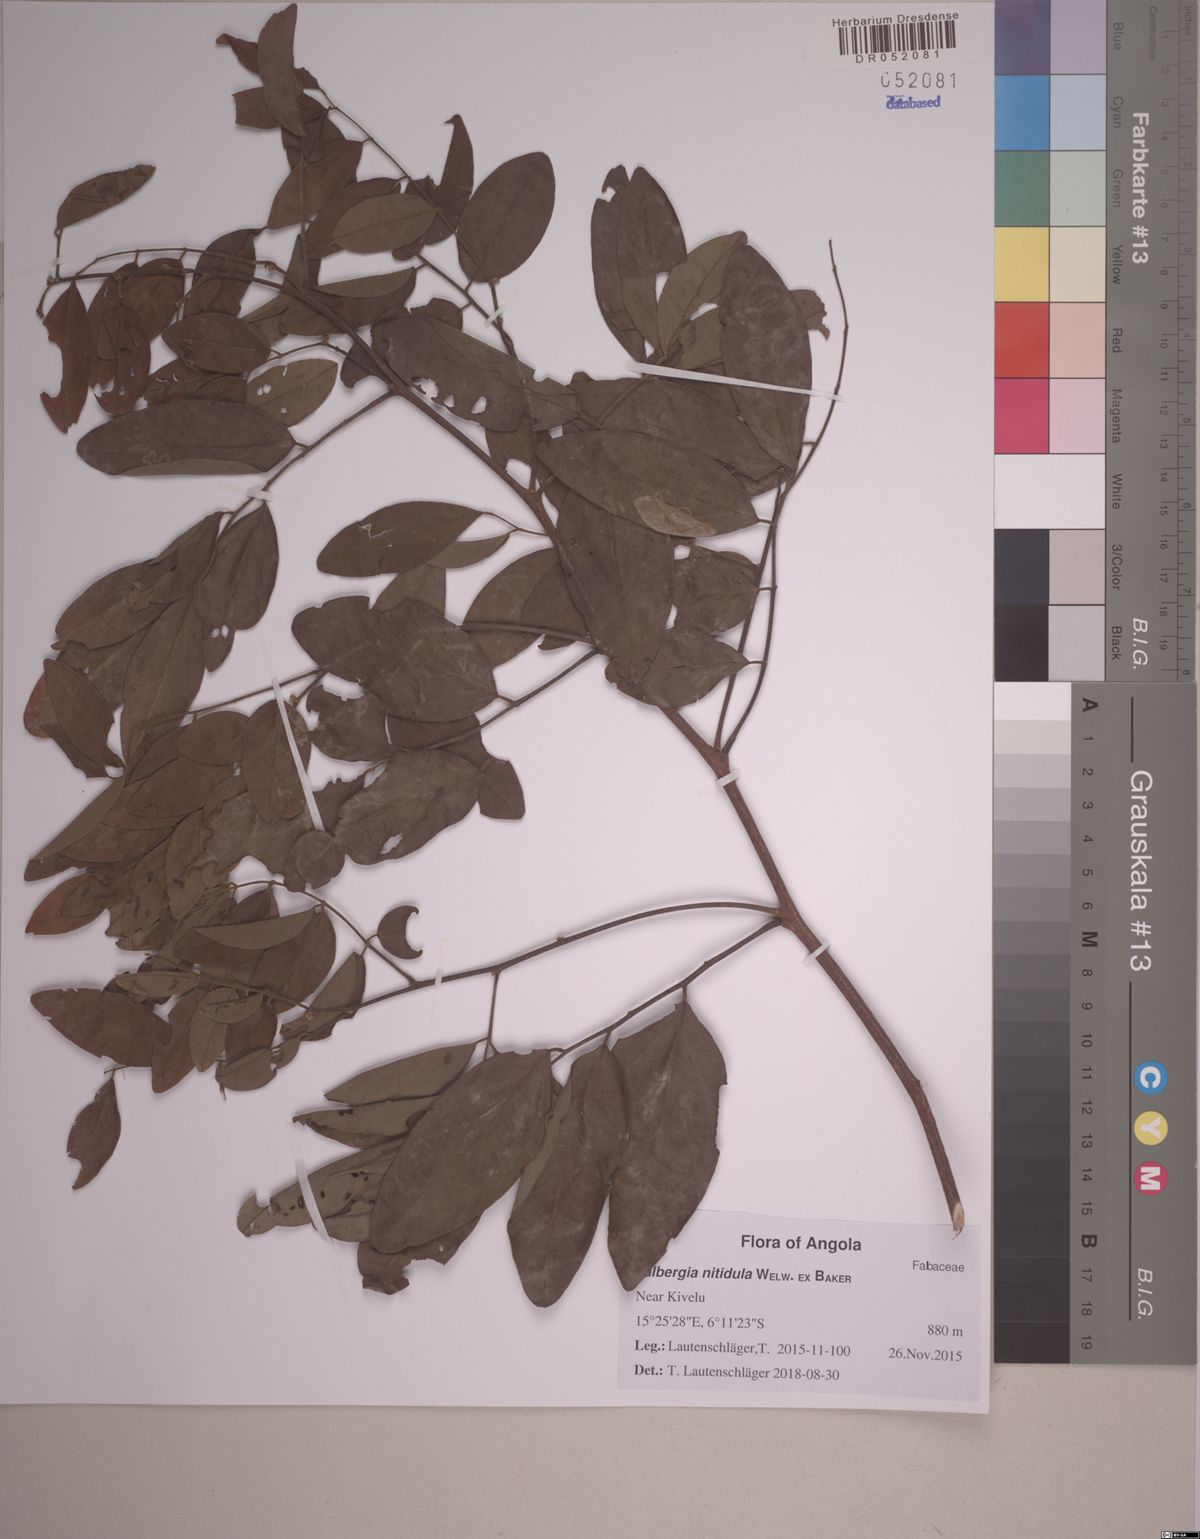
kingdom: Plantae
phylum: Tracheophyta
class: Magnoliopsida
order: Fabales
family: Fabaceae
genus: Dalbergia
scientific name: Dalbergia nitidula
